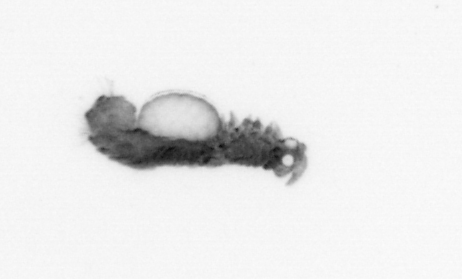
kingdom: Animalia
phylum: Annelida
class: Polychaeta
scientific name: Polychaeta
